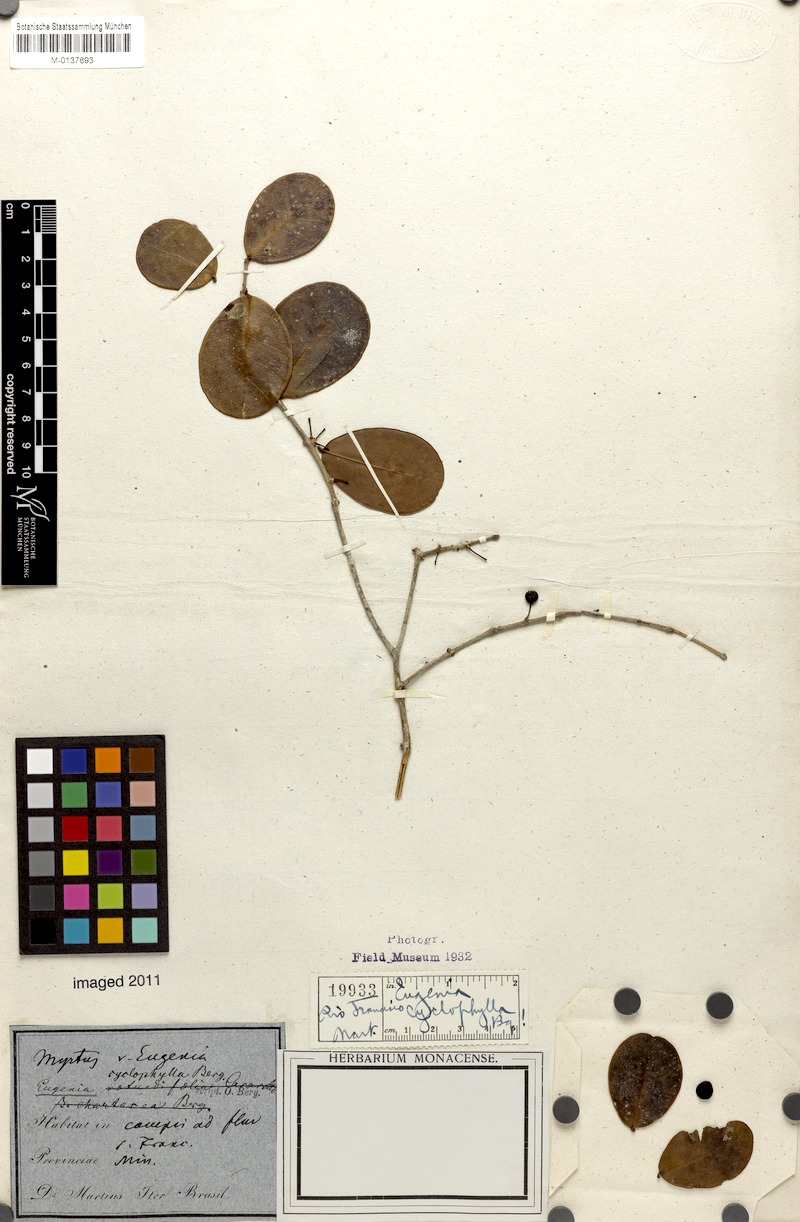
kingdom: Plantae
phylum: Tracheophyta
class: Magnoliopsida
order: Myrtales
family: Myrtaceae
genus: Eugenia
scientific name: Eugenia cyclophylla
